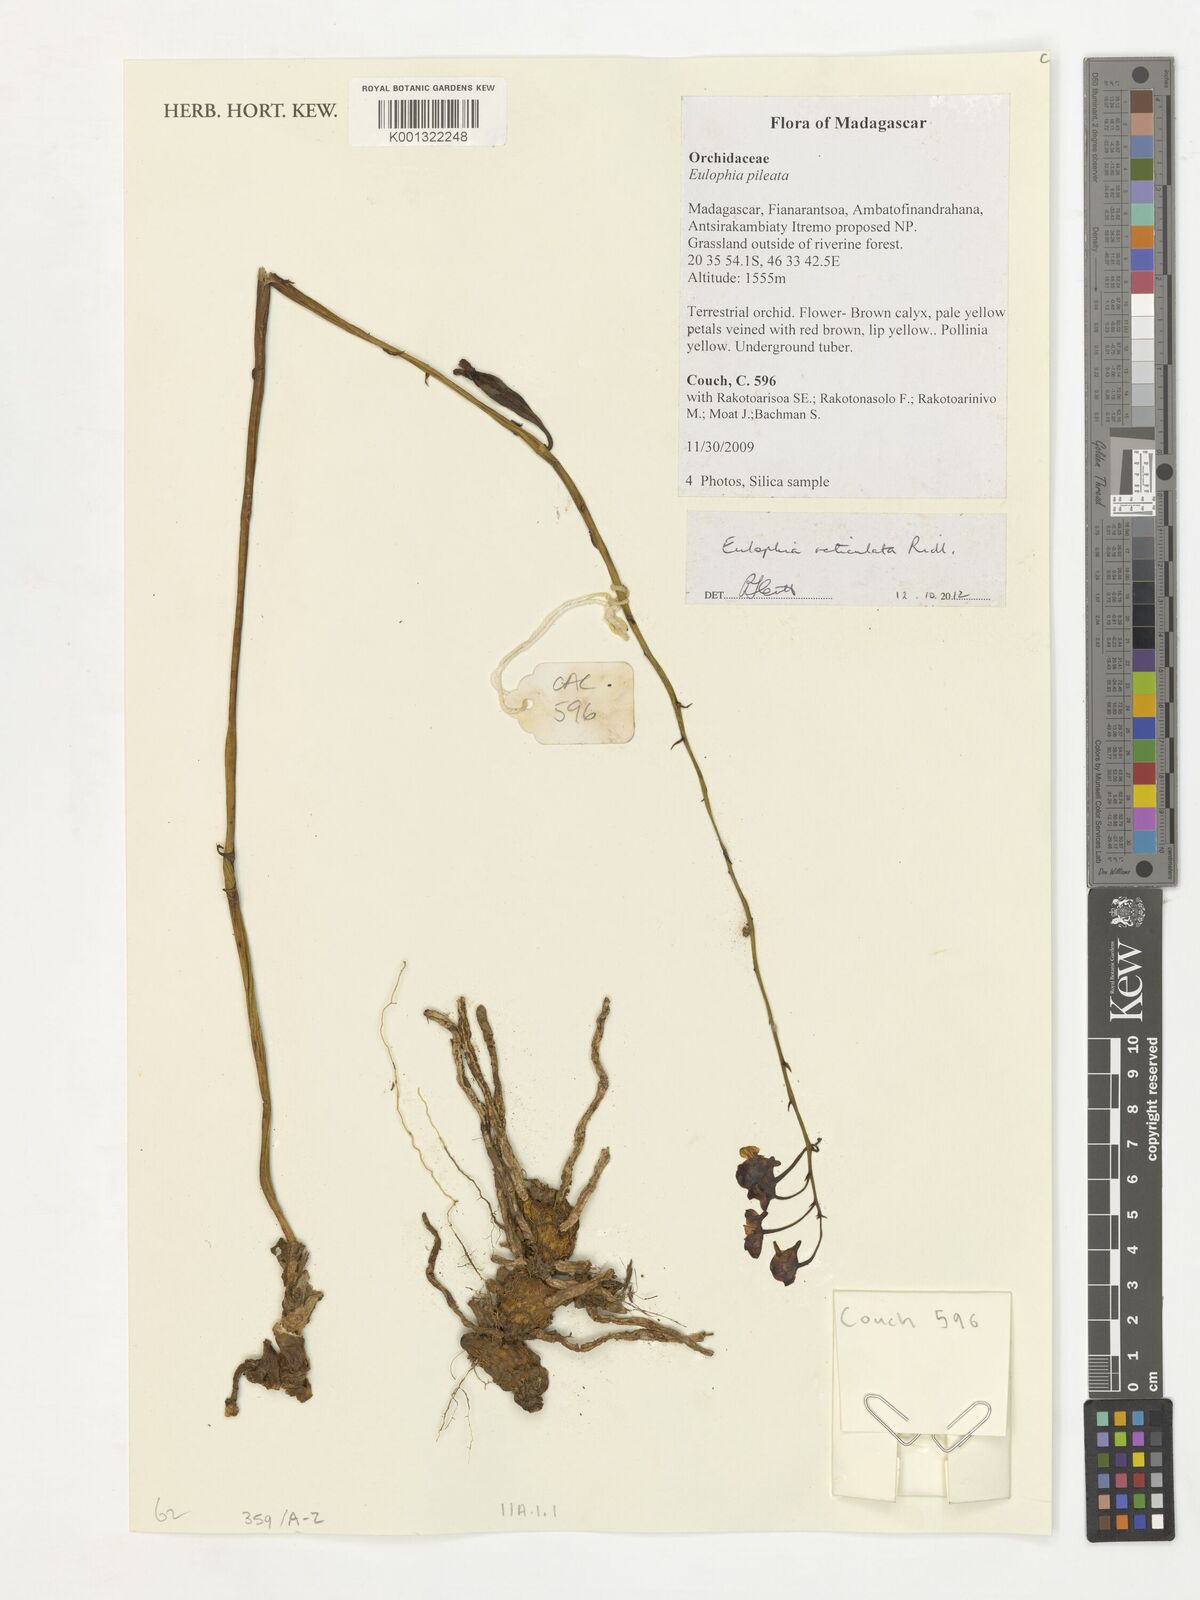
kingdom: Plantae
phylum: Tracheophyta
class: Liliopsida
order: Asparagales
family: Orchidaceae
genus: Eulophia
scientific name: Eulophia reticulata
